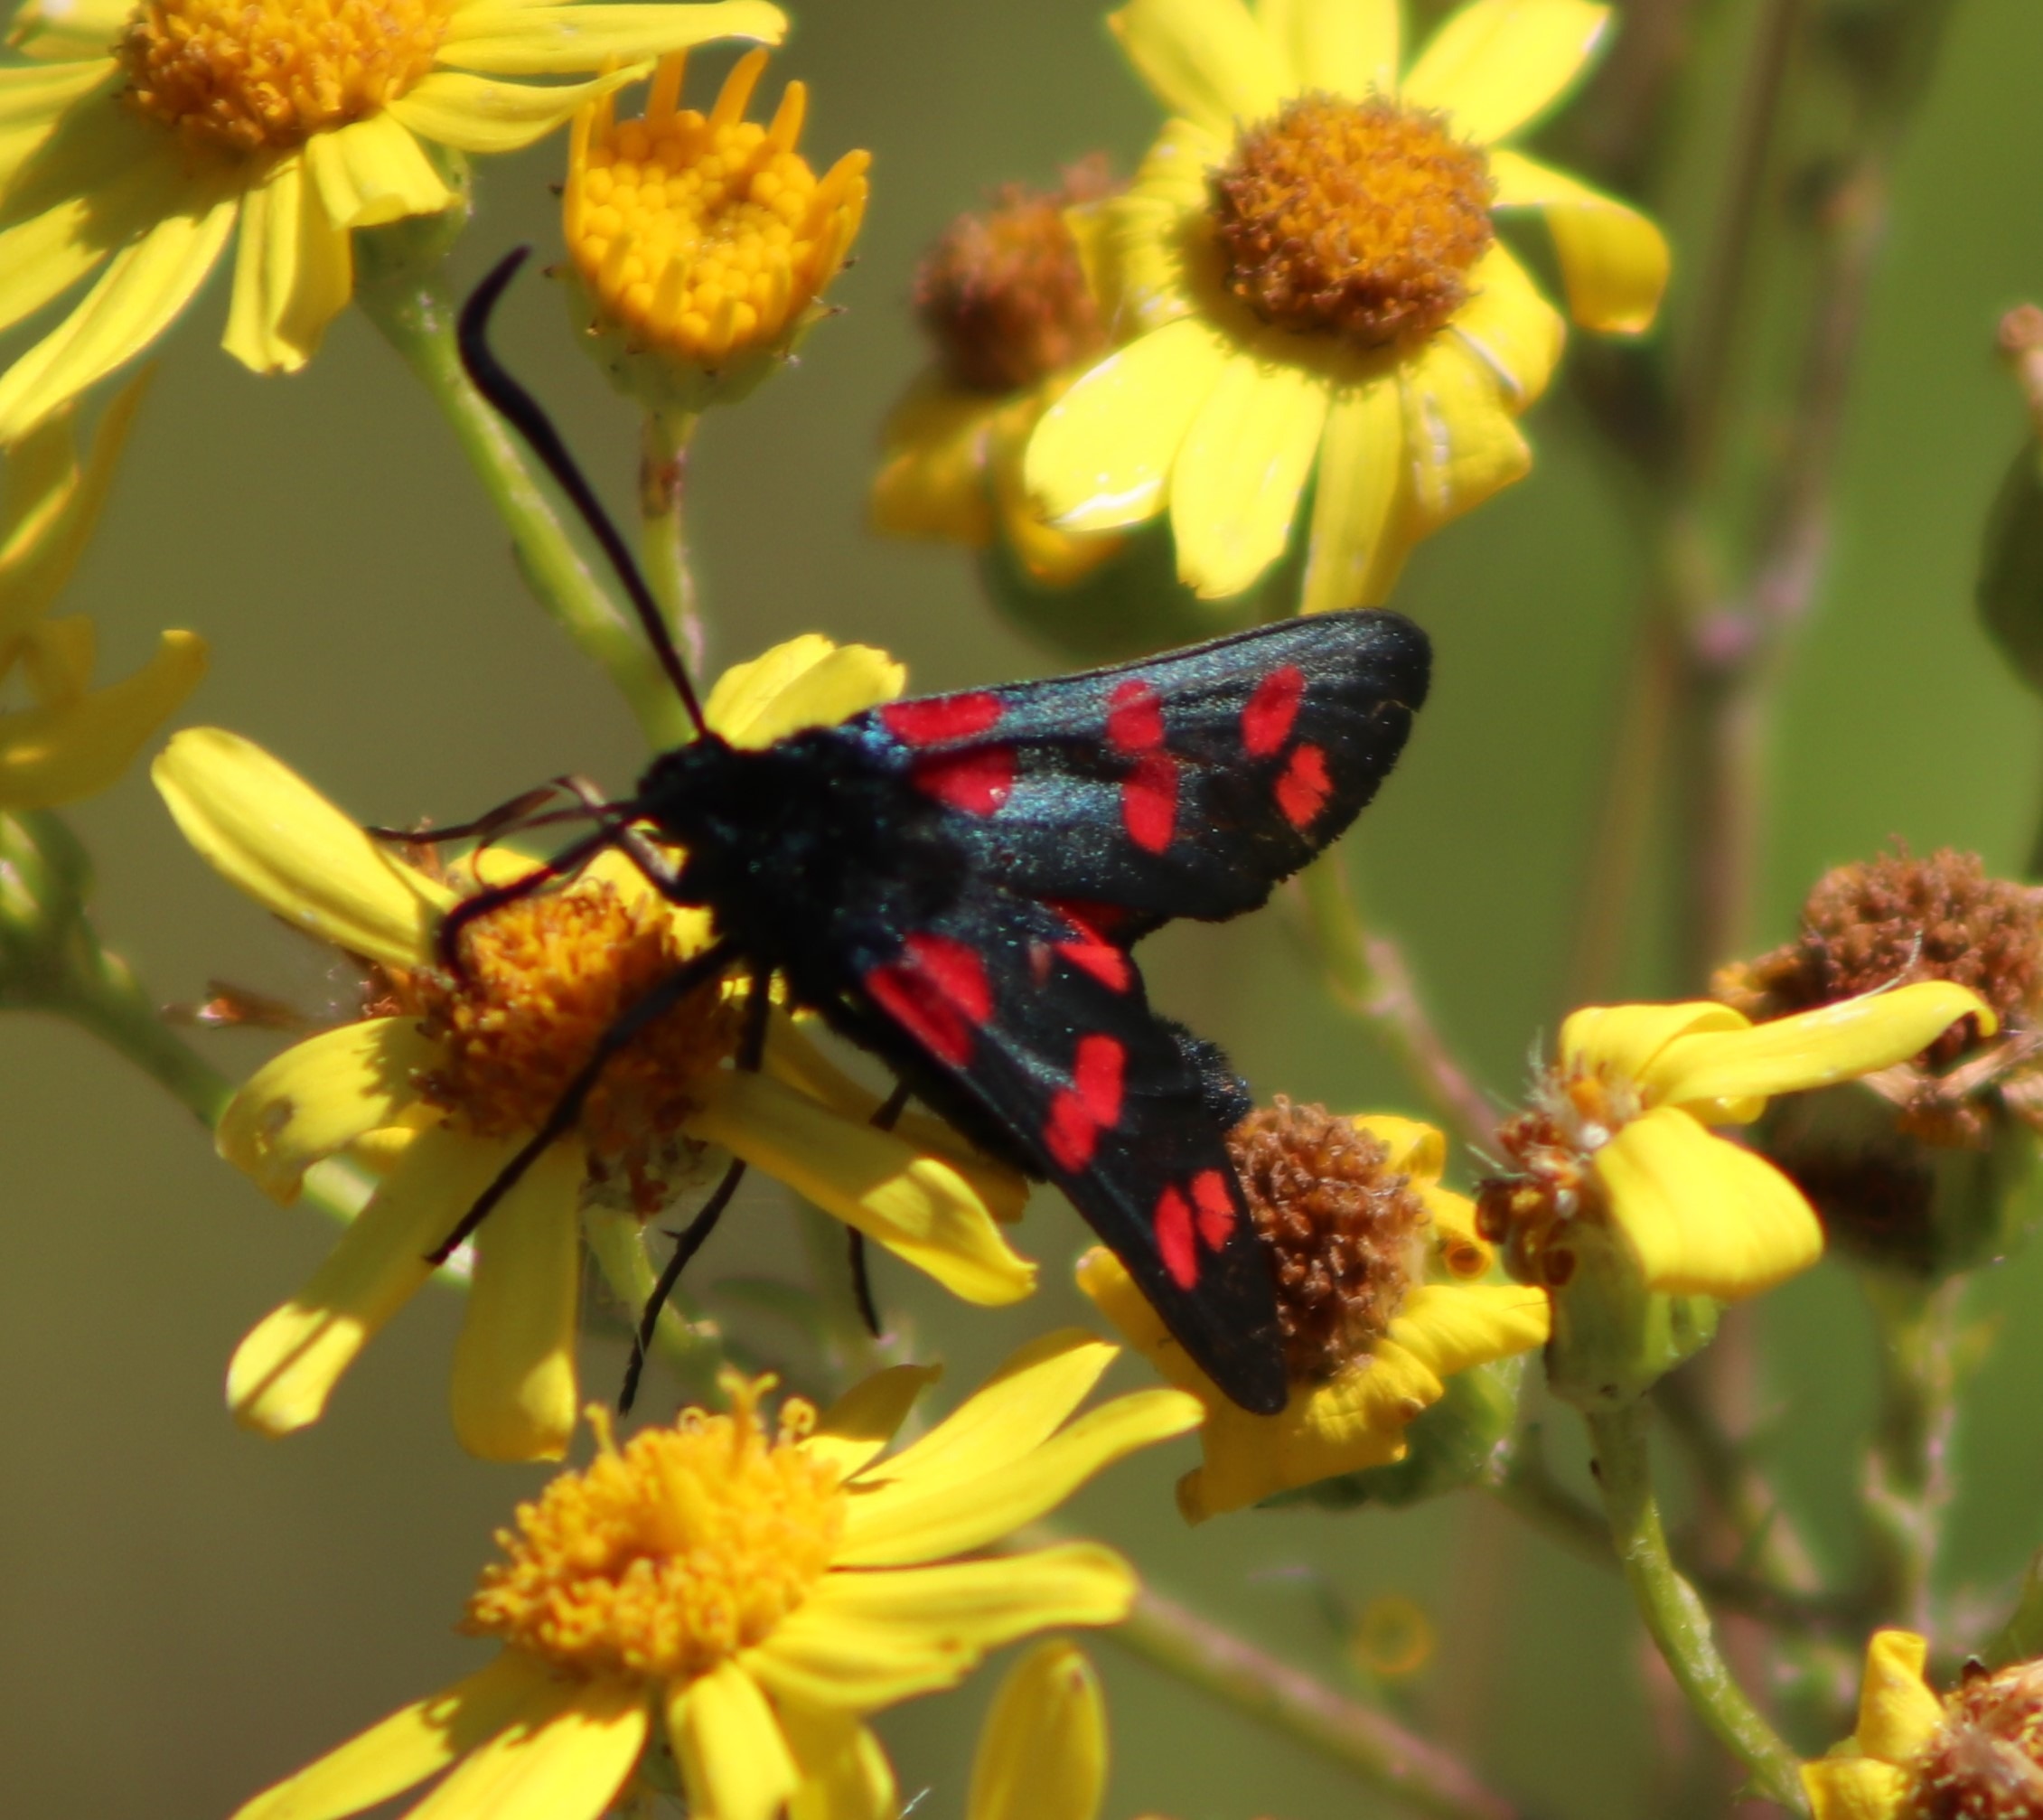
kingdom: Animalia
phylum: Arthropoda
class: Insecta
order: Lepidoptera
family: Zygaenidae
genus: Zygaena
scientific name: Zygaena filipendulae
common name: Seksplettet køllesværmer
